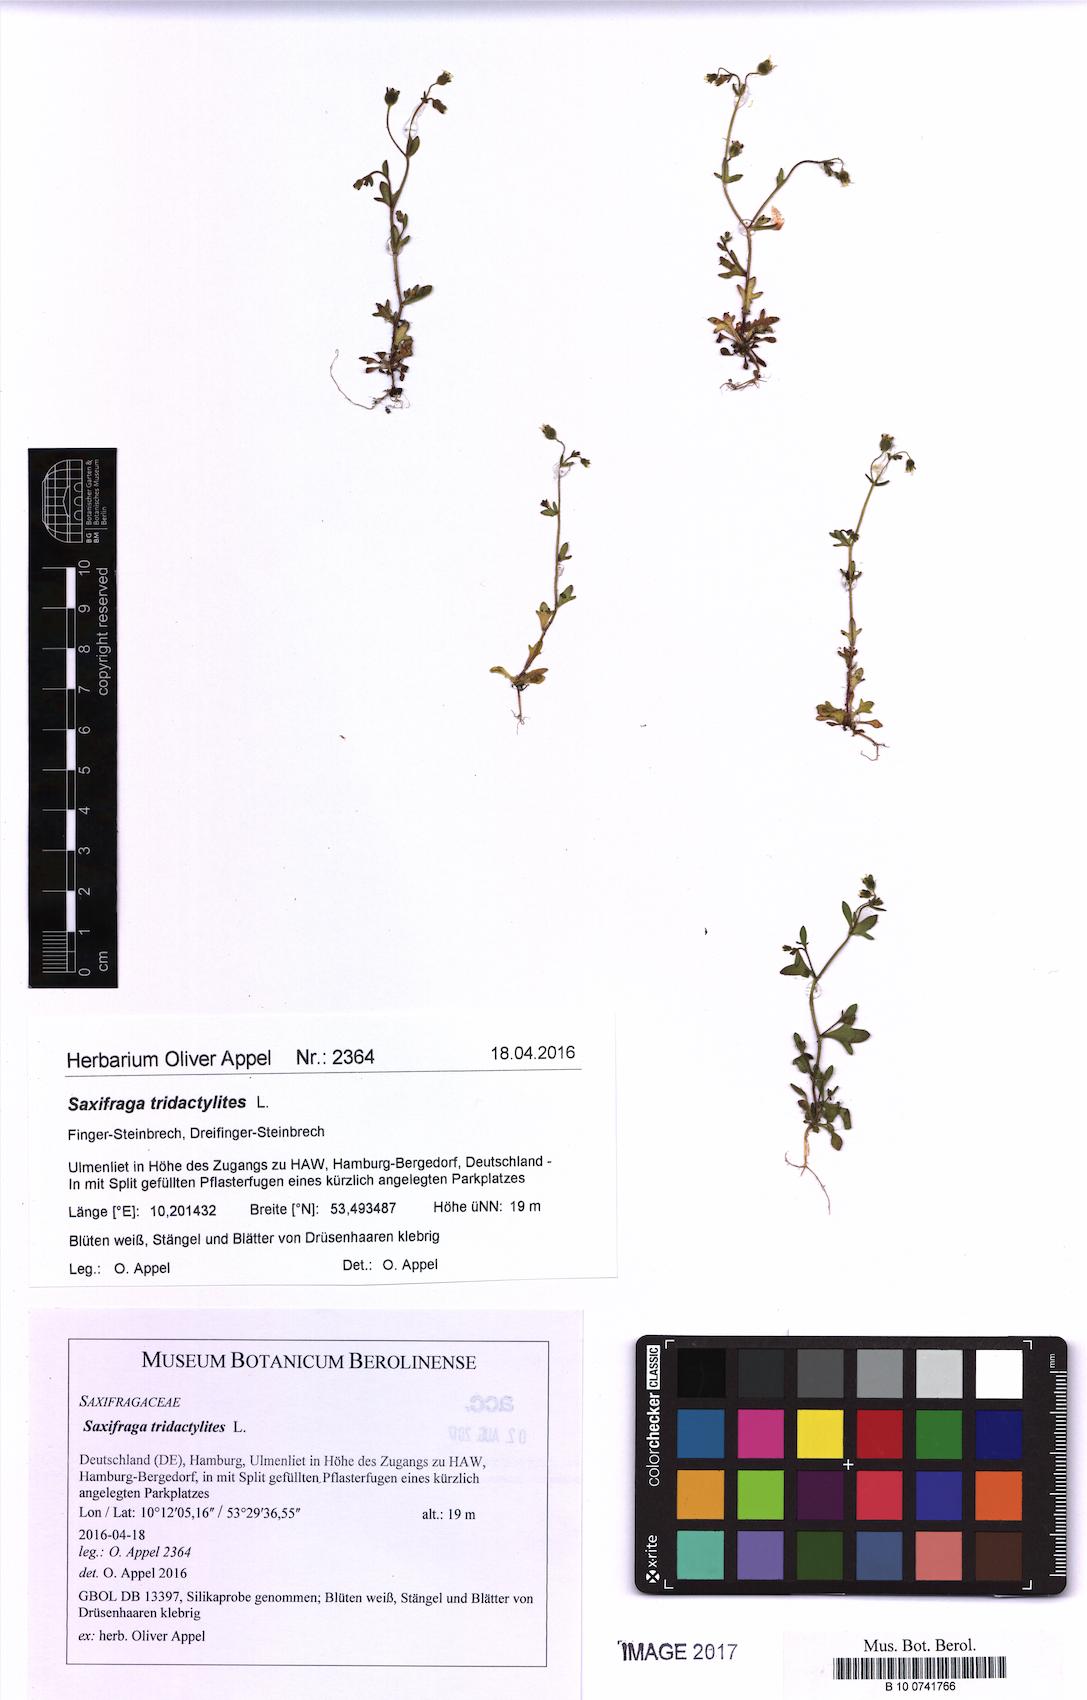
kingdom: Plantae
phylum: Tracheophyta
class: Magnoliopsida
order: Saxifragales
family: Saxifragaceae
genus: Saxifraga
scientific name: Saxifraga tridactylites
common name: Rue-leaved saxifrage
